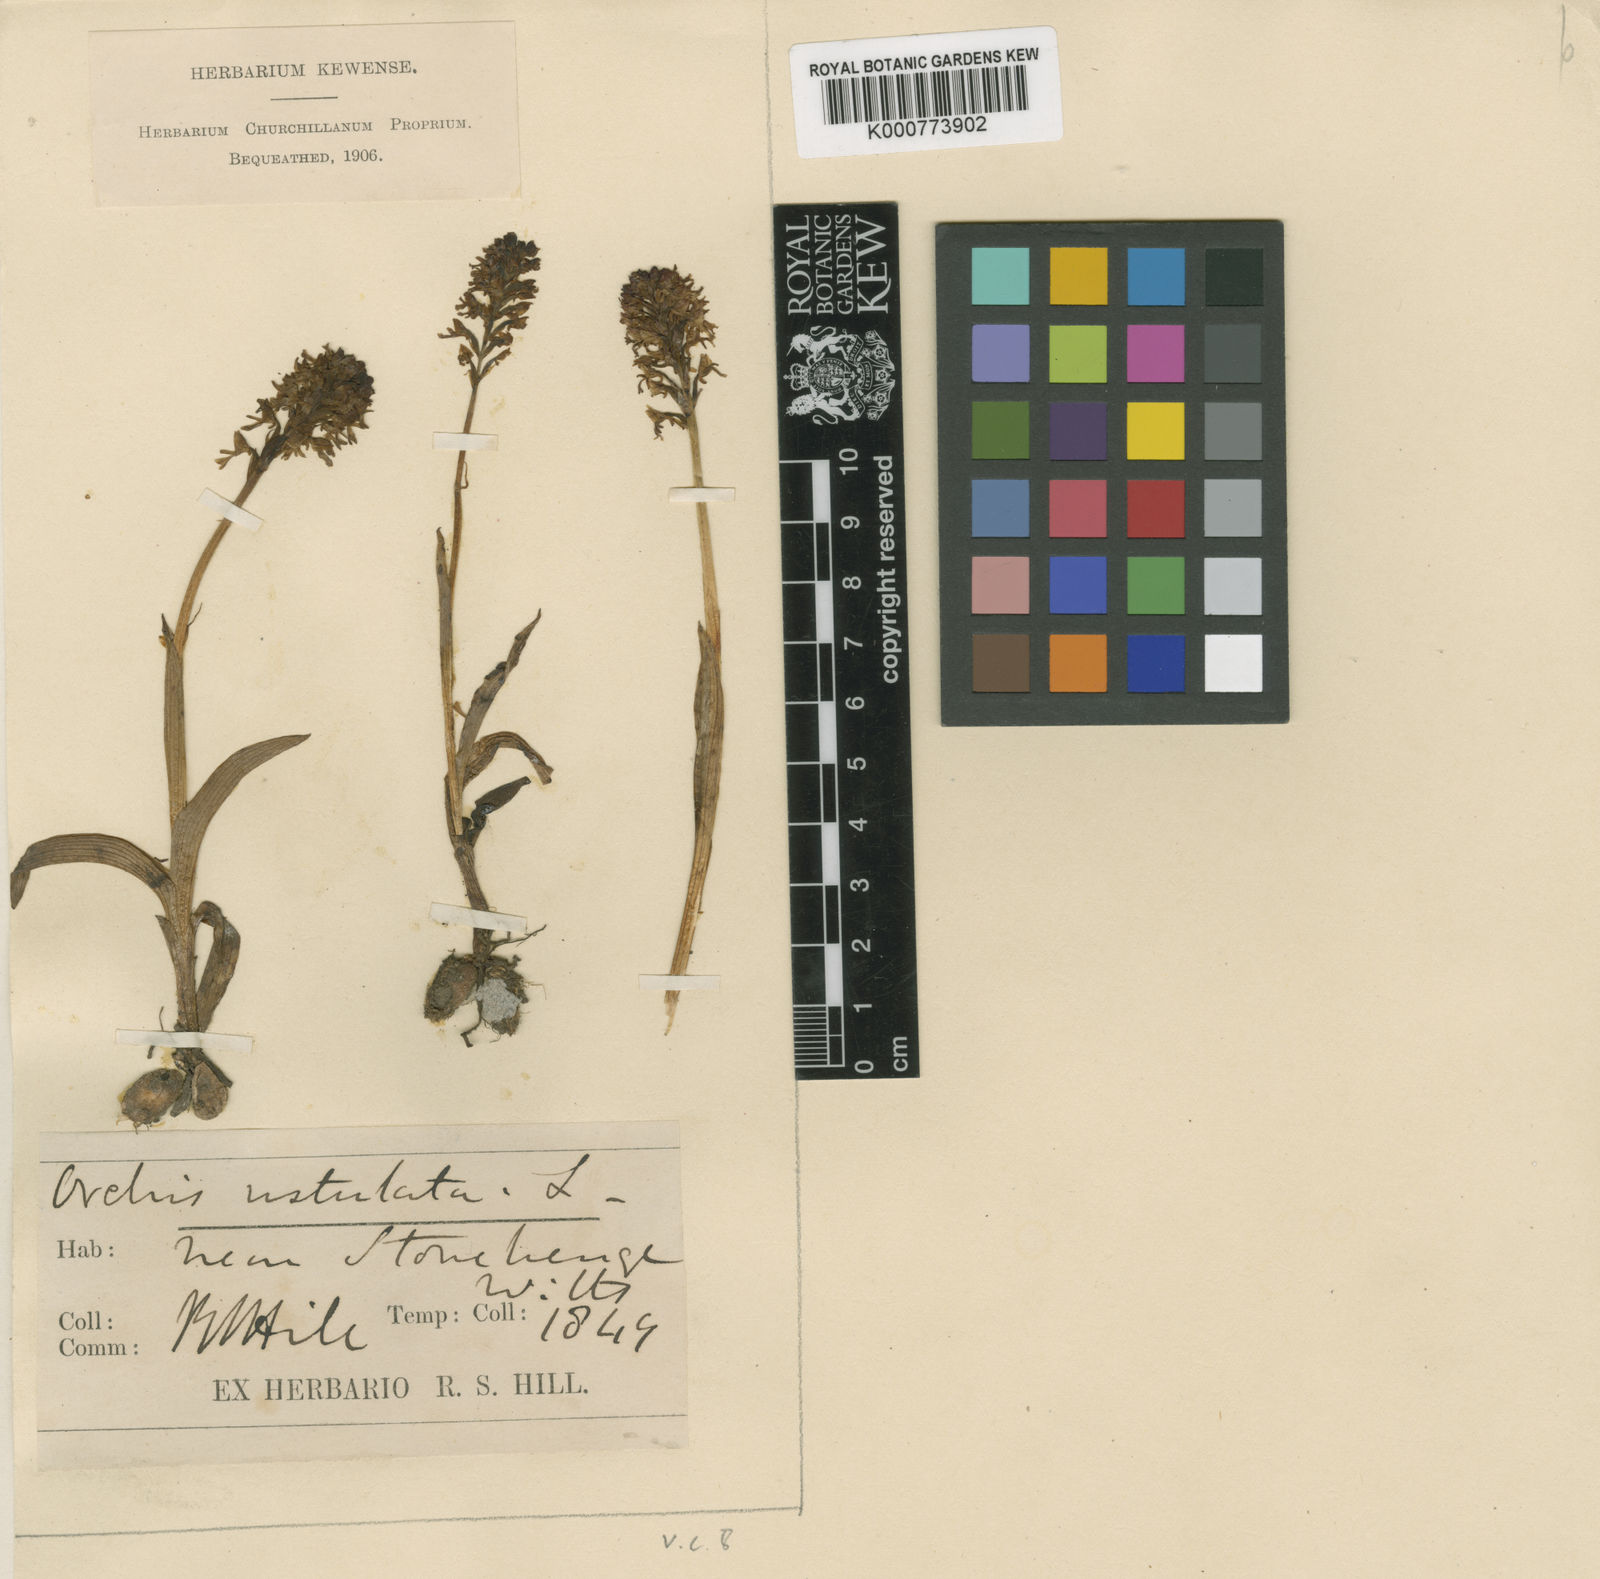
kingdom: Plantae
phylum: Tracheophyta
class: Liliopsida
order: Asparagales
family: Orchidaceae
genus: Neotinea
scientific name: Neotinea ustulata
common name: Burnt orchid
